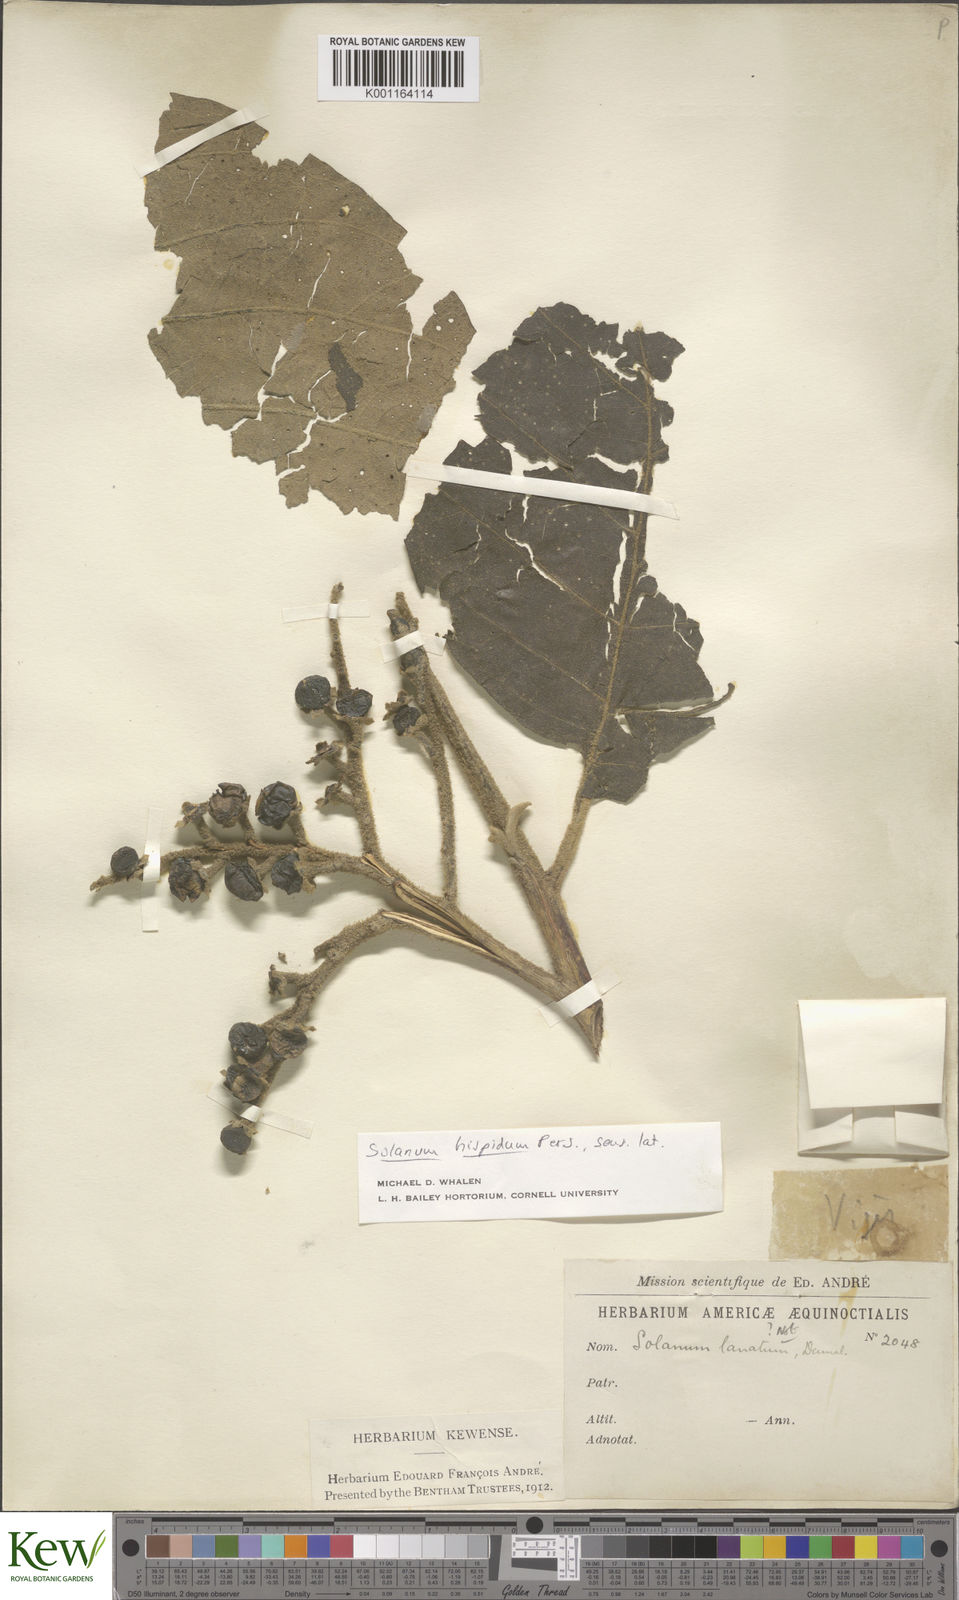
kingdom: Plantae
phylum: Tracheophyta
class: Magnoliopsida
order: Solanales
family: Solanaceae
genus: Solanum
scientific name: Solanum asperolanatum
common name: Devil's-fig
